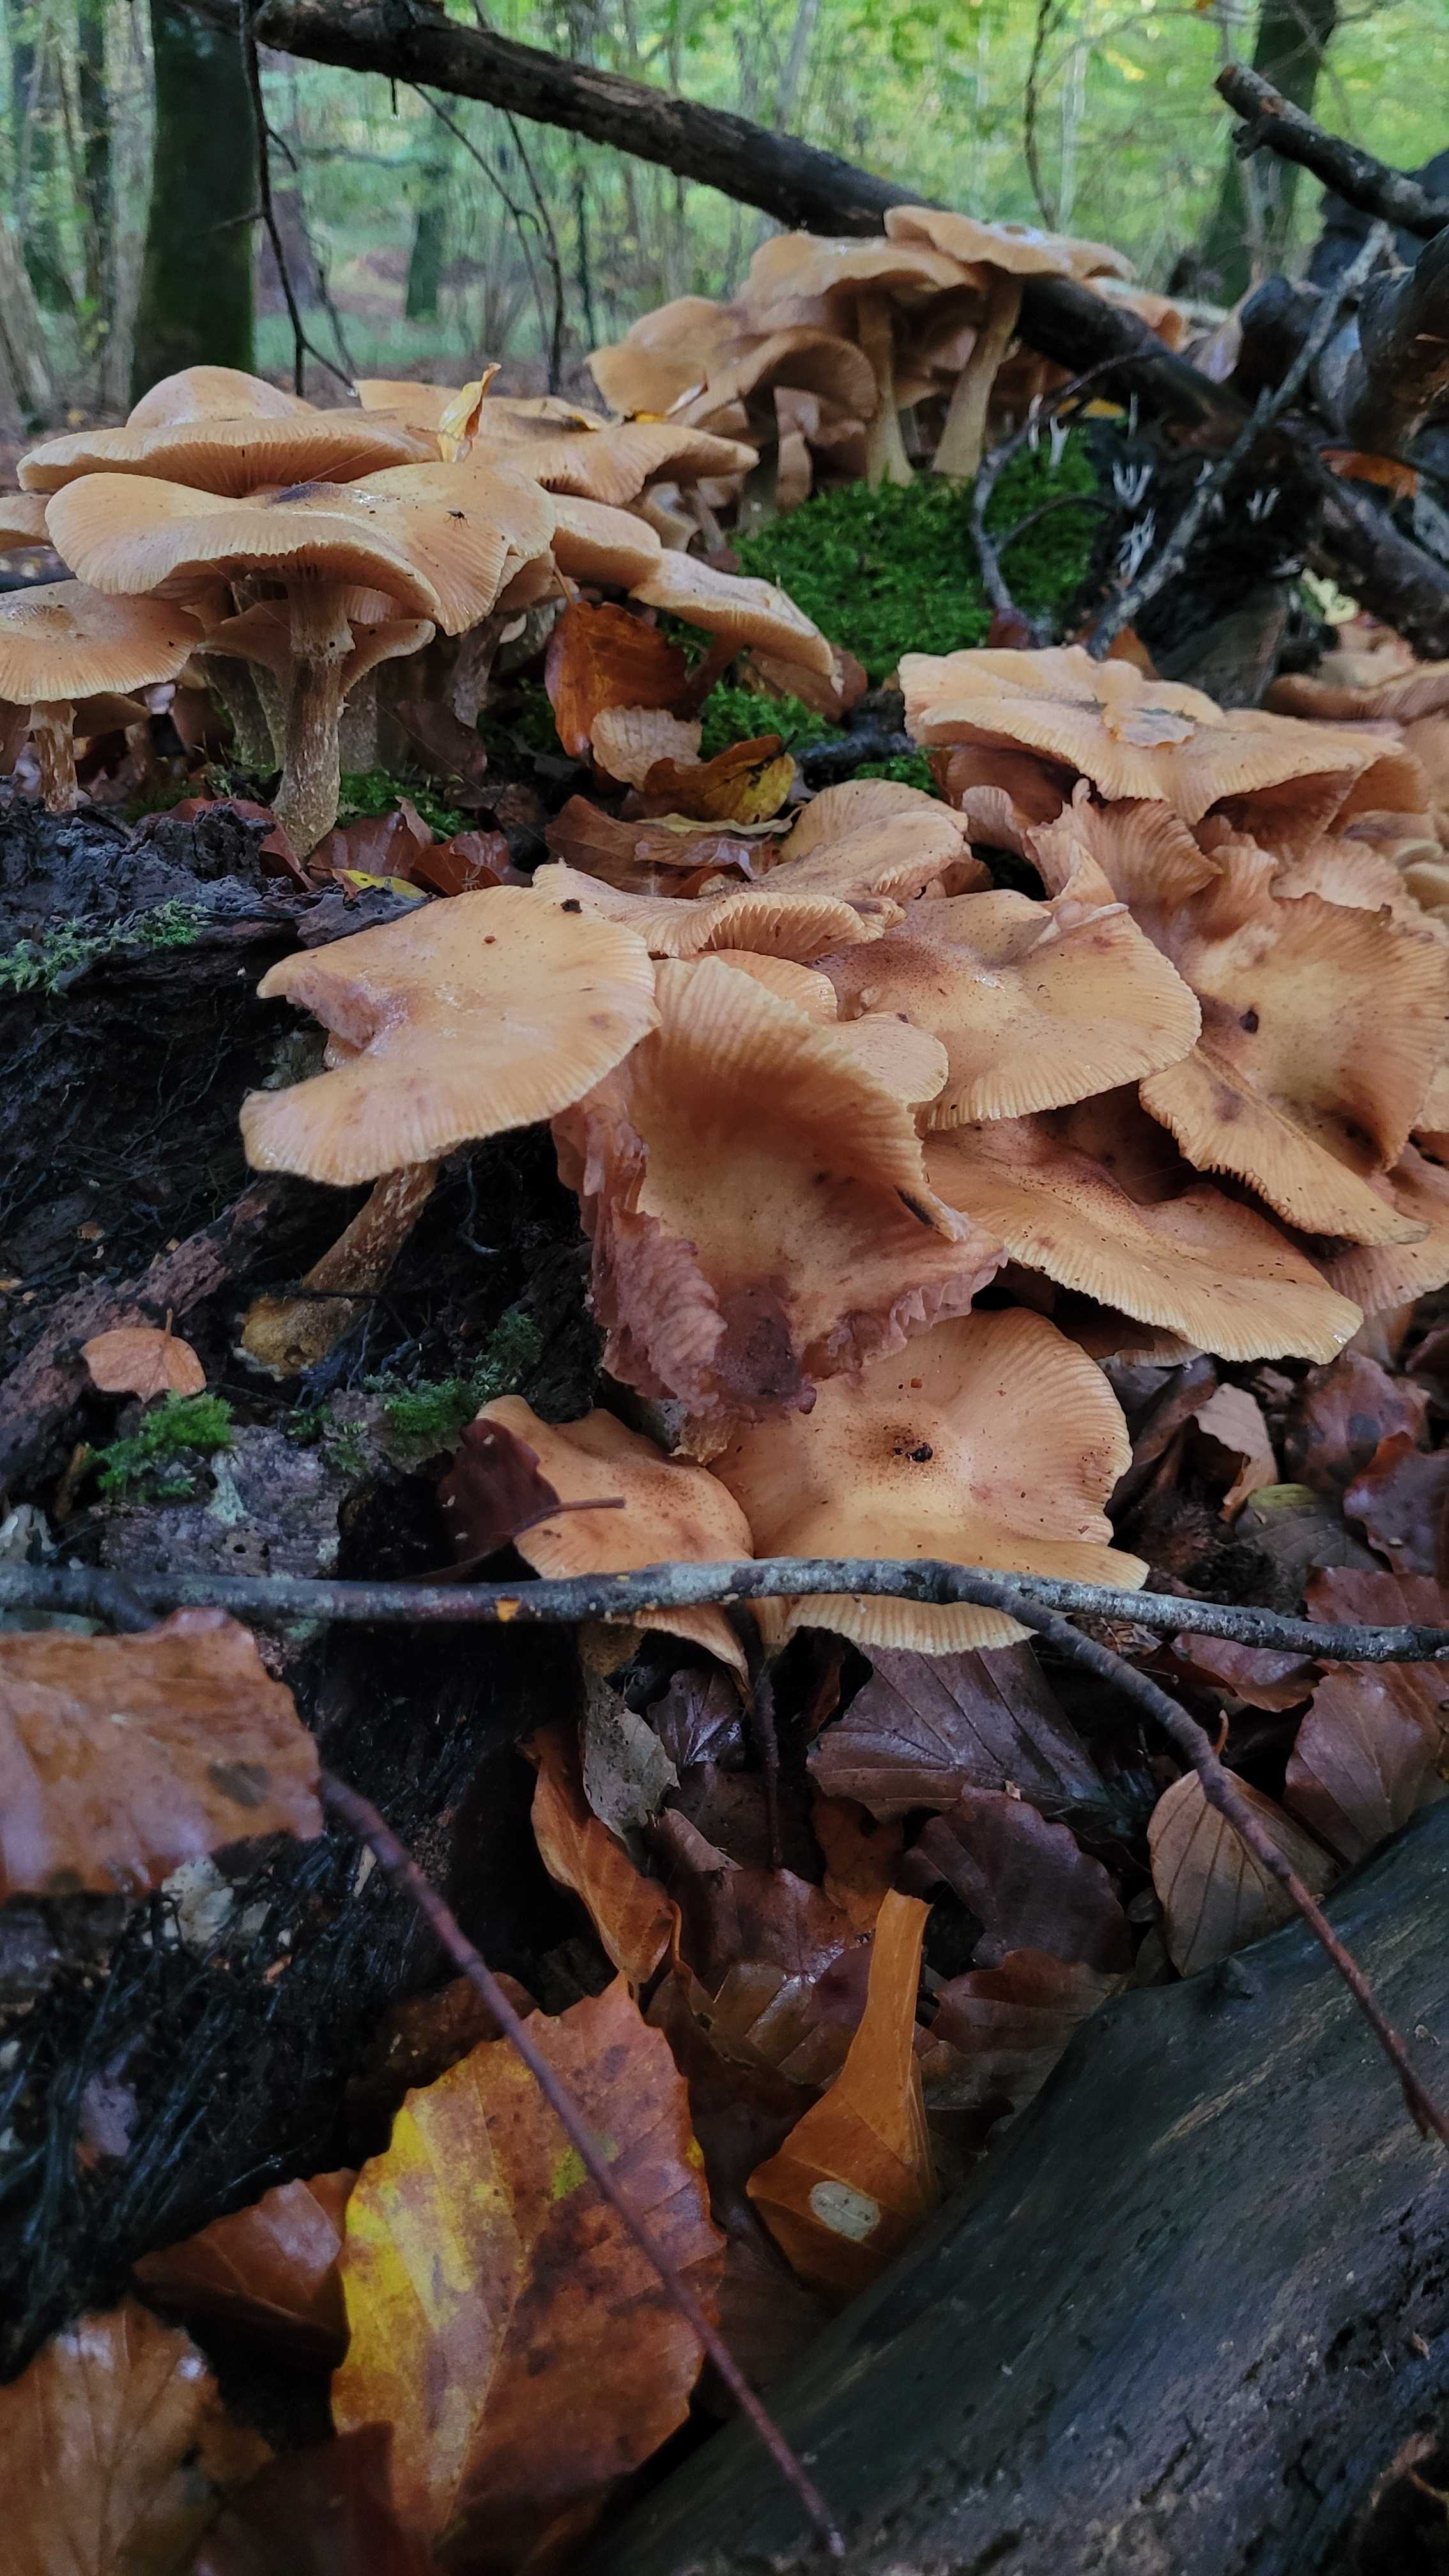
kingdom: Fungi
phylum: Basidiomycota
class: Agaricomycetes
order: Agaricales
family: Physalacriaceae
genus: Armillaria
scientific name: Armillaria lutea
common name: køllestokket honningsvamp
